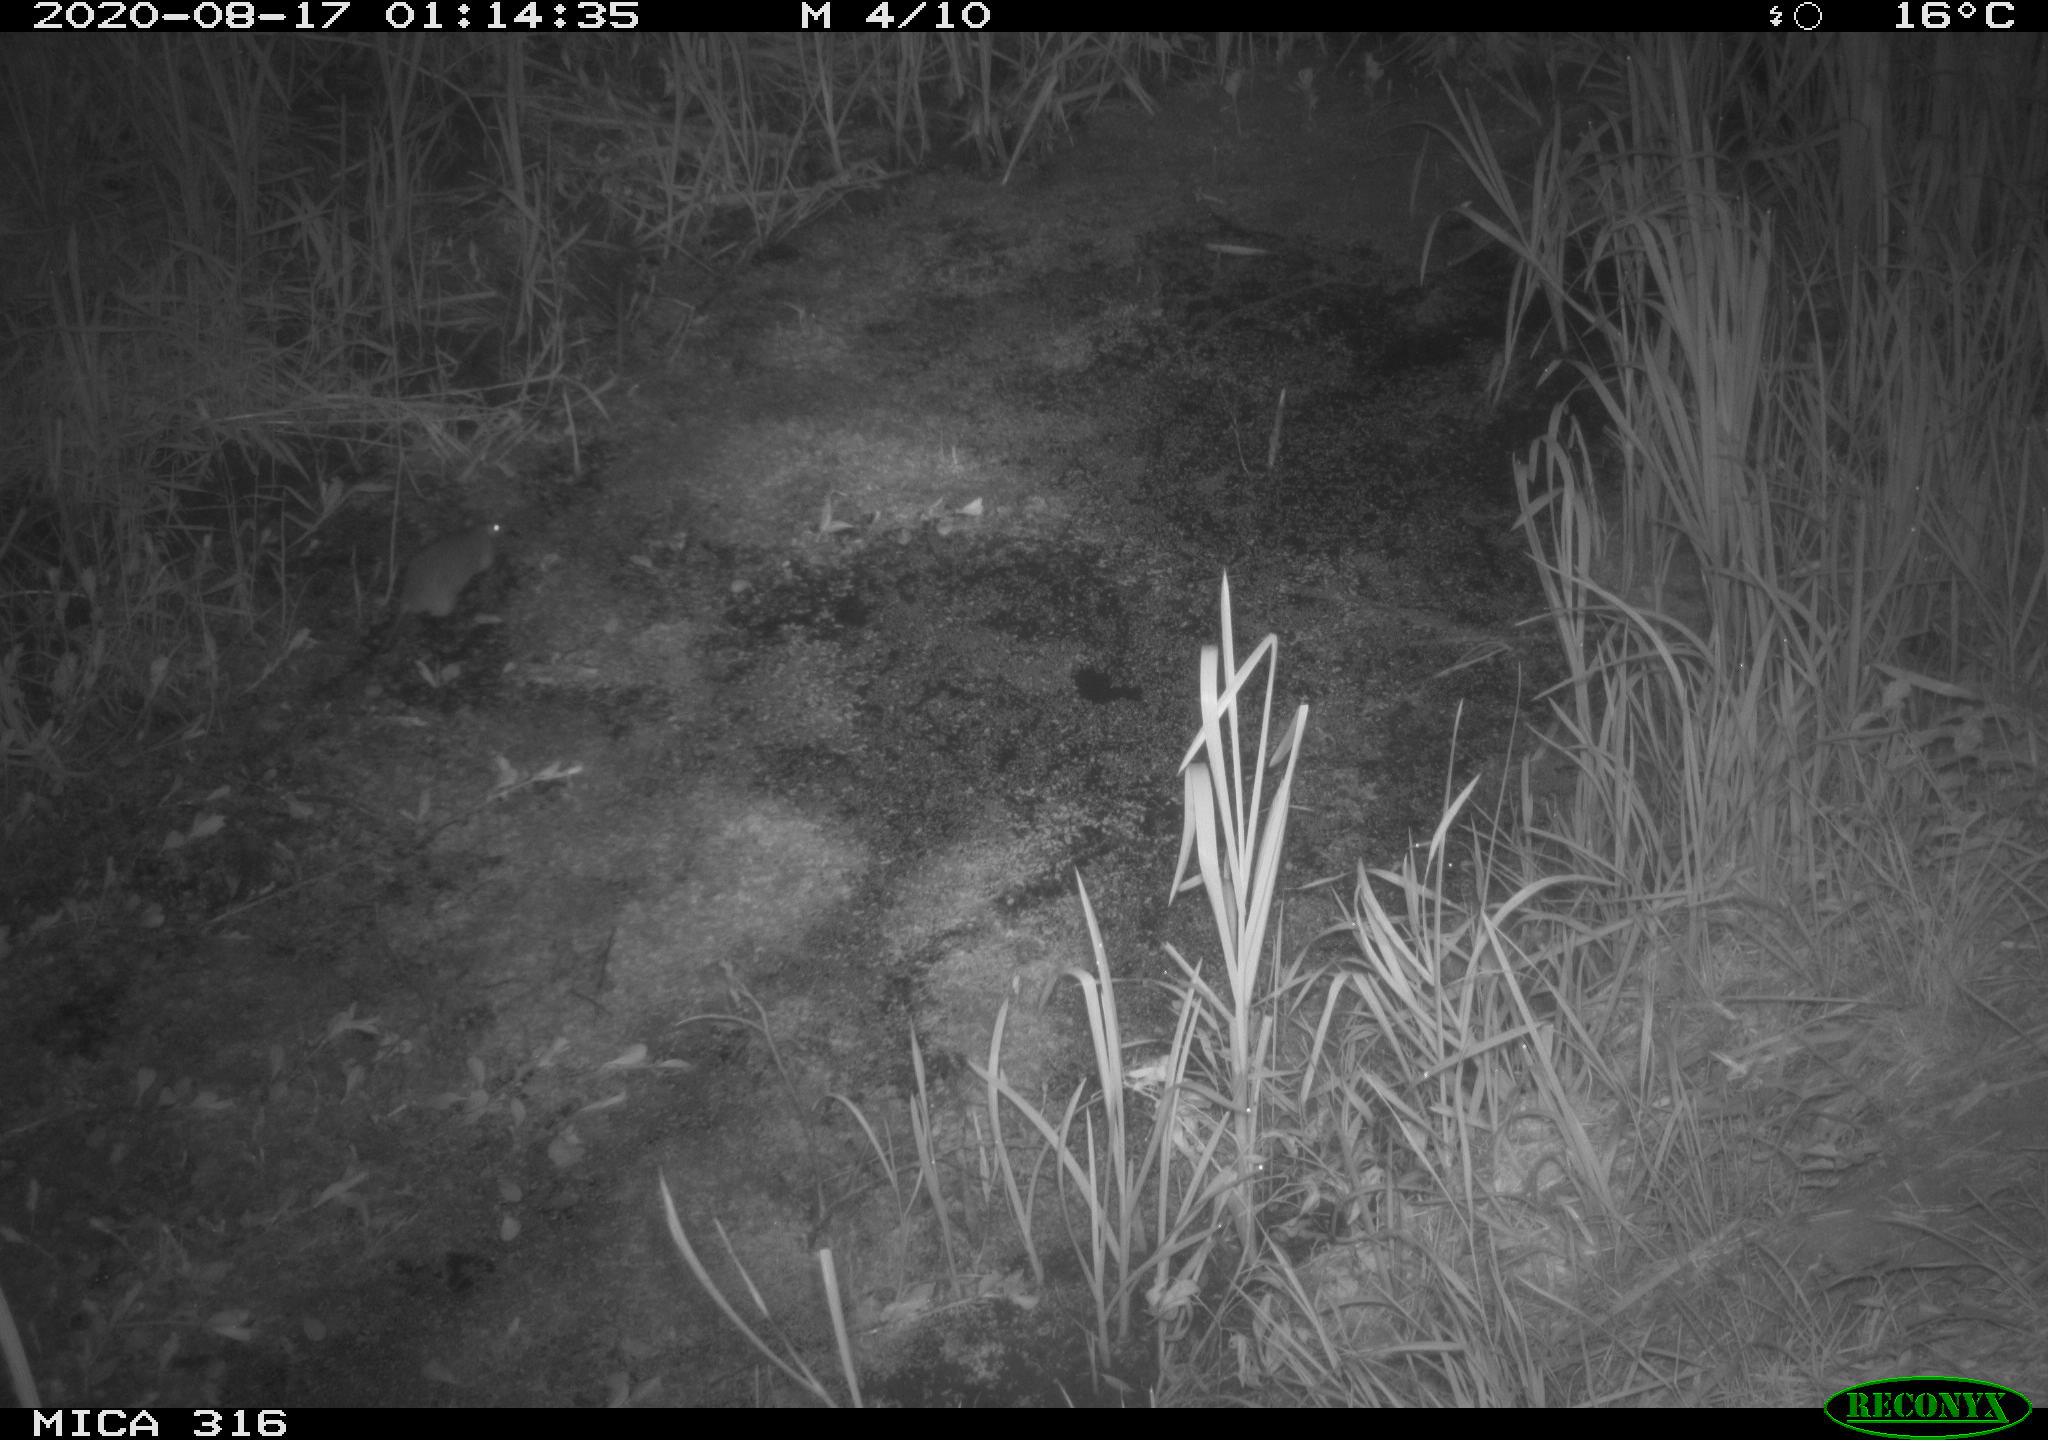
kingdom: Animalia
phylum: Chordata
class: Mammalia
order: Rodentia
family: Muridae
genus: Rattus
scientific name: Rattus norvegicus
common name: Brown rat
